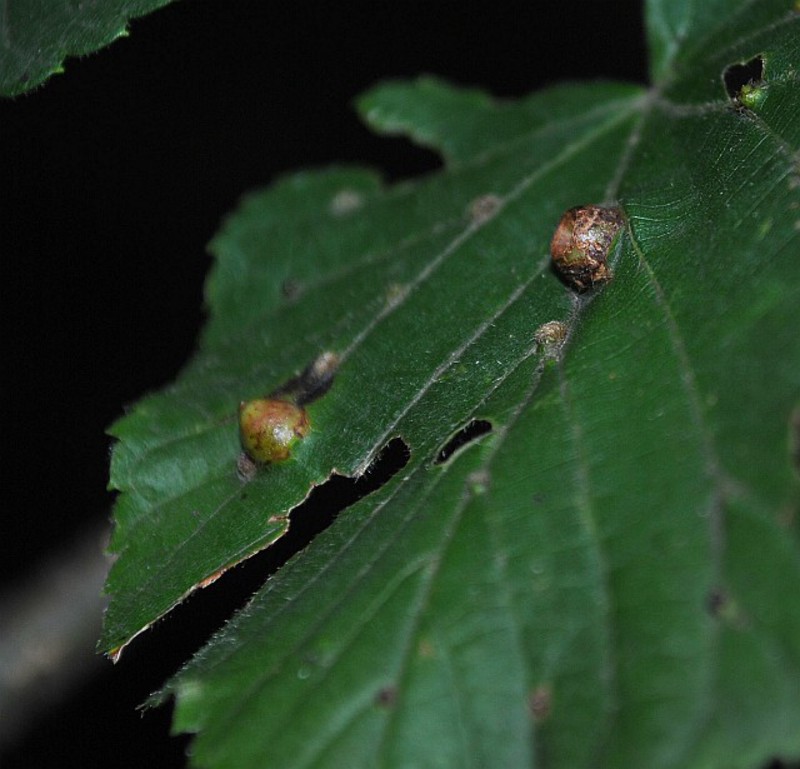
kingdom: Animalia
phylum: Arthropoda
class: Insecta
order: Diptera
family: Cecidomyiidae
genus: Didymomyia
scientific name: Didymomyia tiliacea
